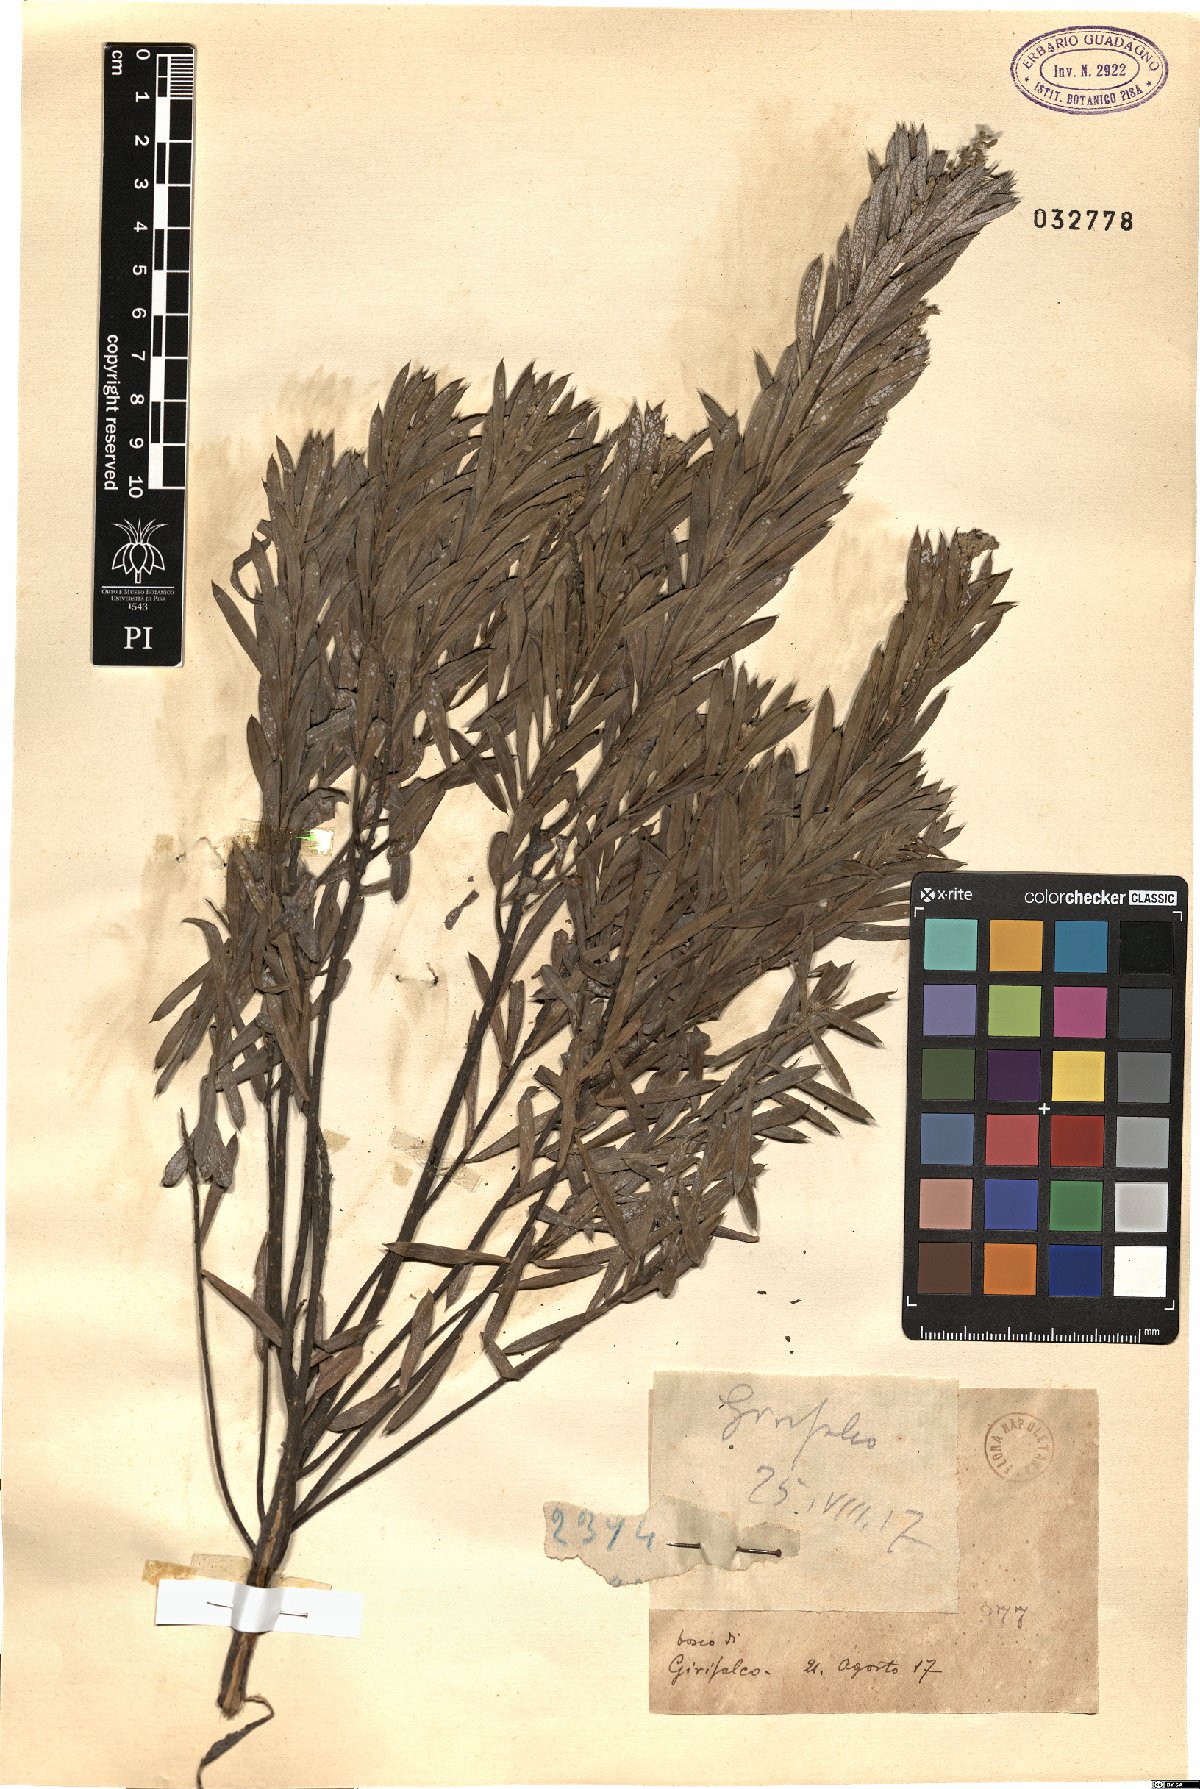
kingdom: Plantae
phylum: Tracheophyta
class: Magnoliopsida
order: Malvales
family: Thymelaeaceae
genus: Daphne
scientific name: Daphne
